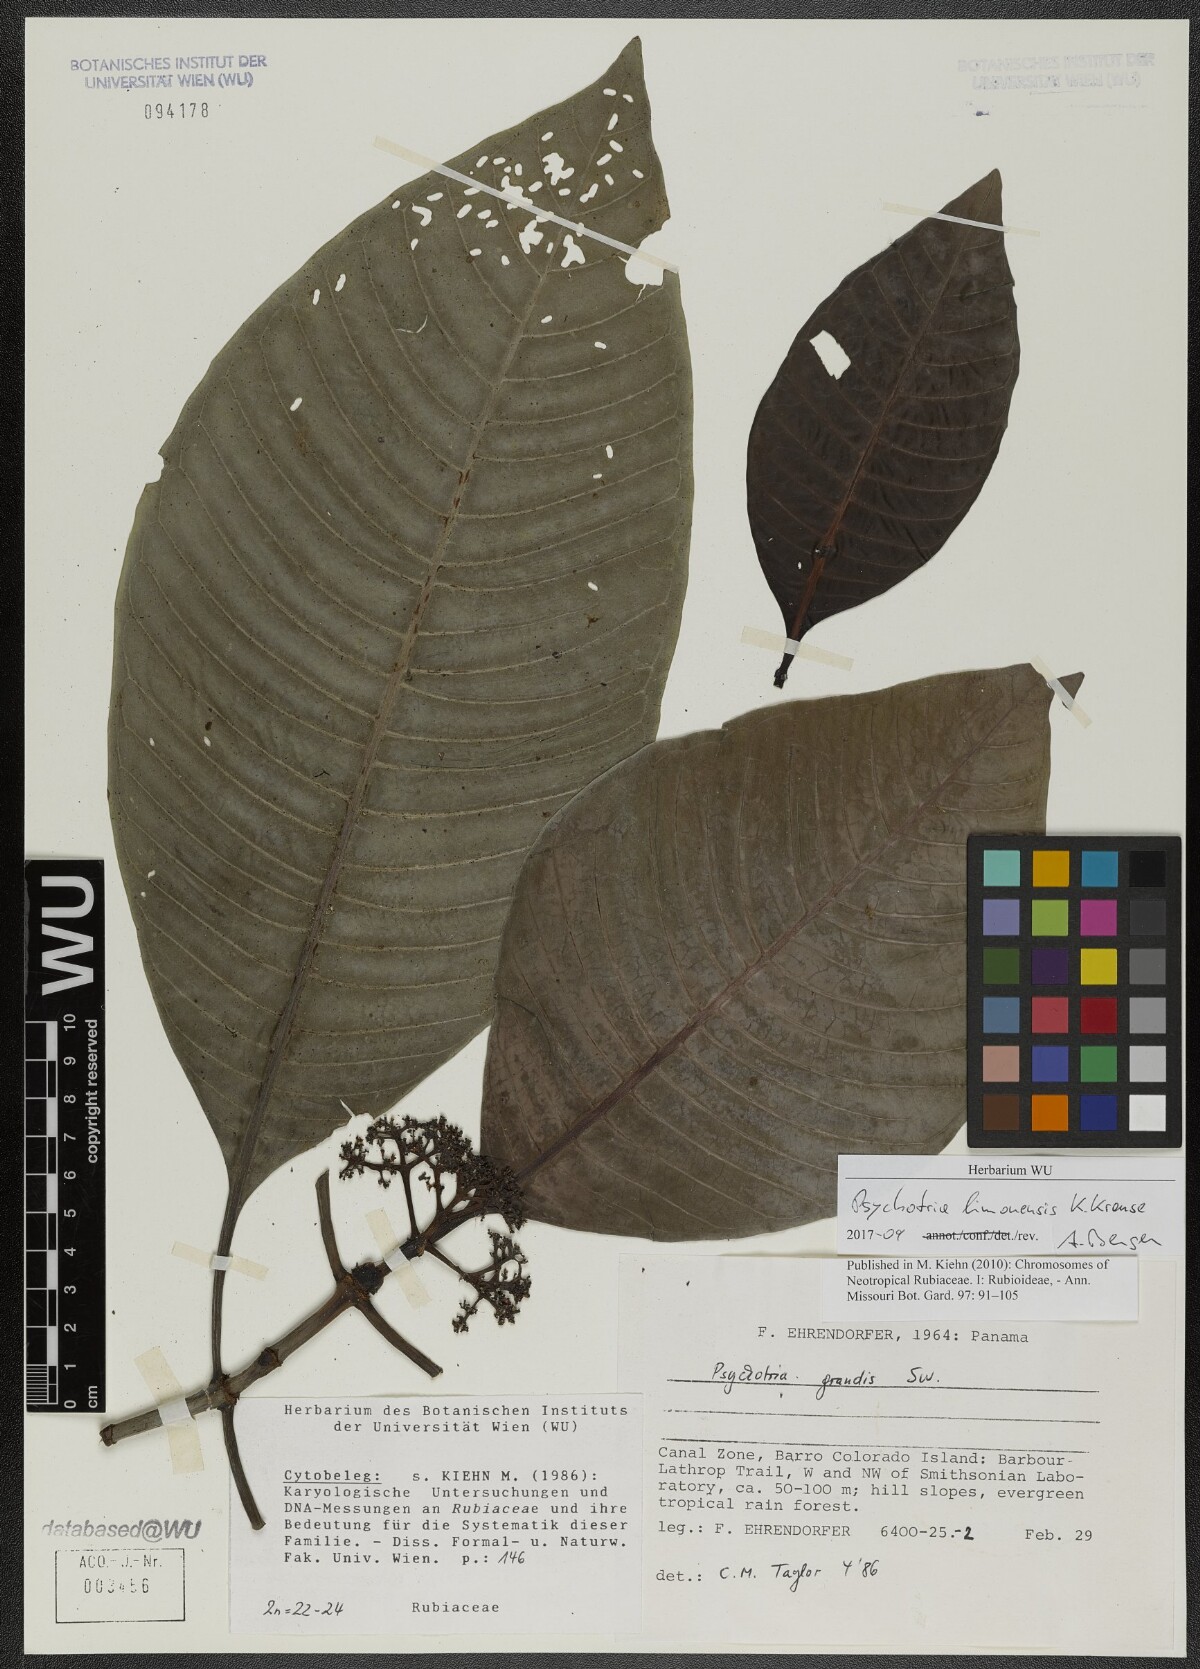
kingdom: Plantae
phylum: Tracheophyta
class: Magnoliopsida
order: Gentianales
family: Rubiaceae
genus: Psychotria
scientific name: Psychotria limonensis
